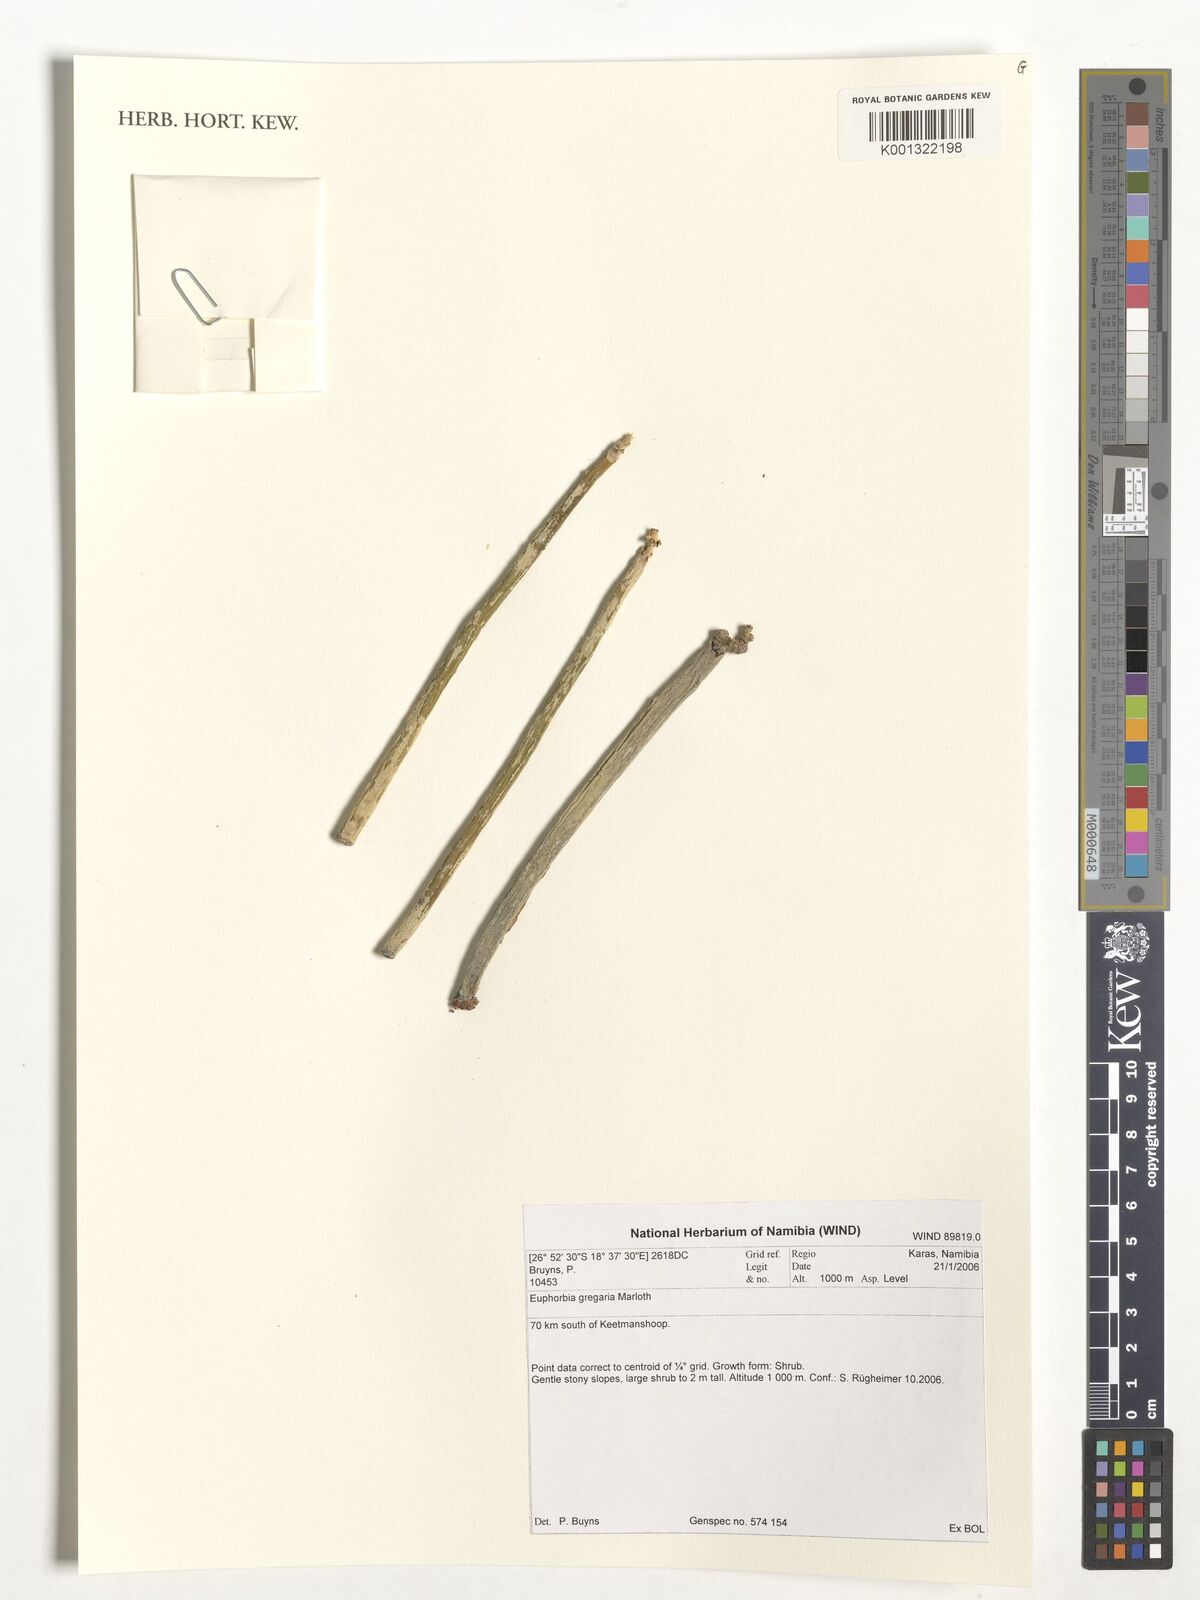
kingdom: Plantae
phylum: Tracheophyta
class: Magnoliopsida
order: Malpighiales
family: Euphorbiaceae
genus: Euphorbia
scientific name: Euphorbia gregaria
